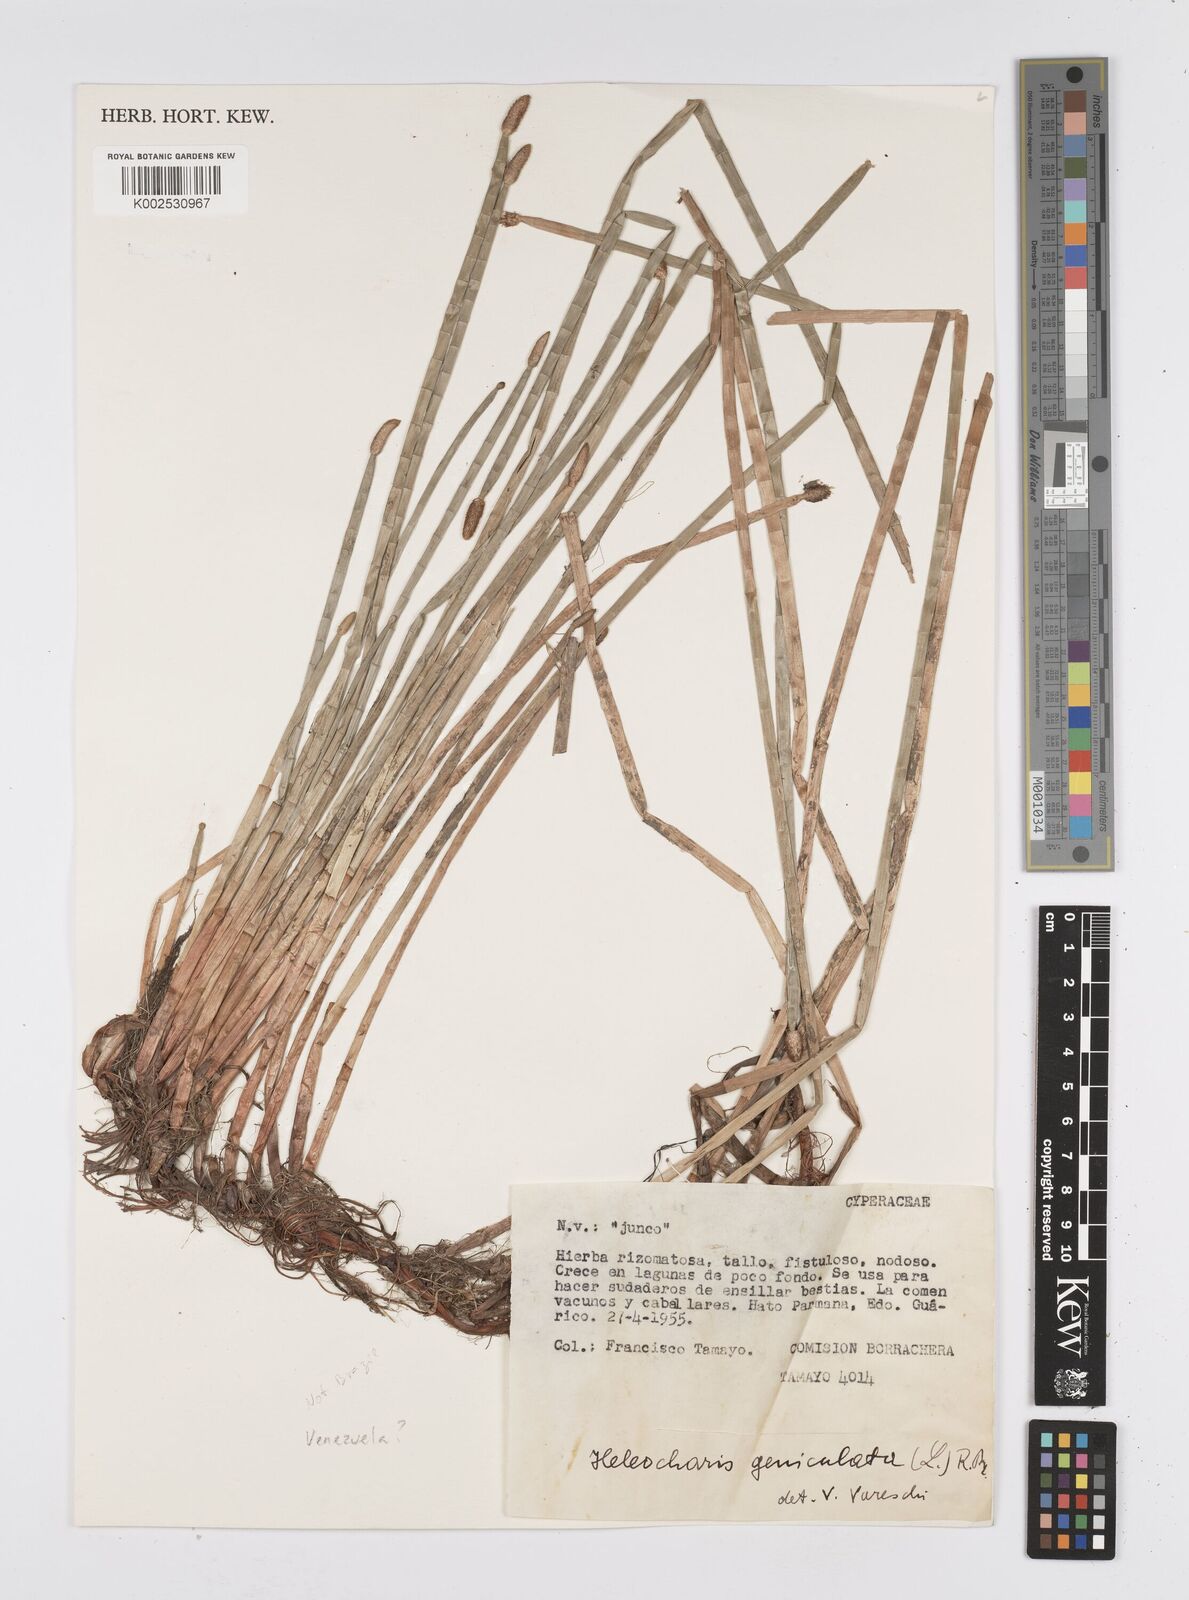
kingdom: Plantae
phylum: Tracheophyta
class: Liliopsida
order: Poales
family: Cyperaceae
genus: Eleocharis
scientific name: Eleocharis geniculata
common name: Canada spikesedge
